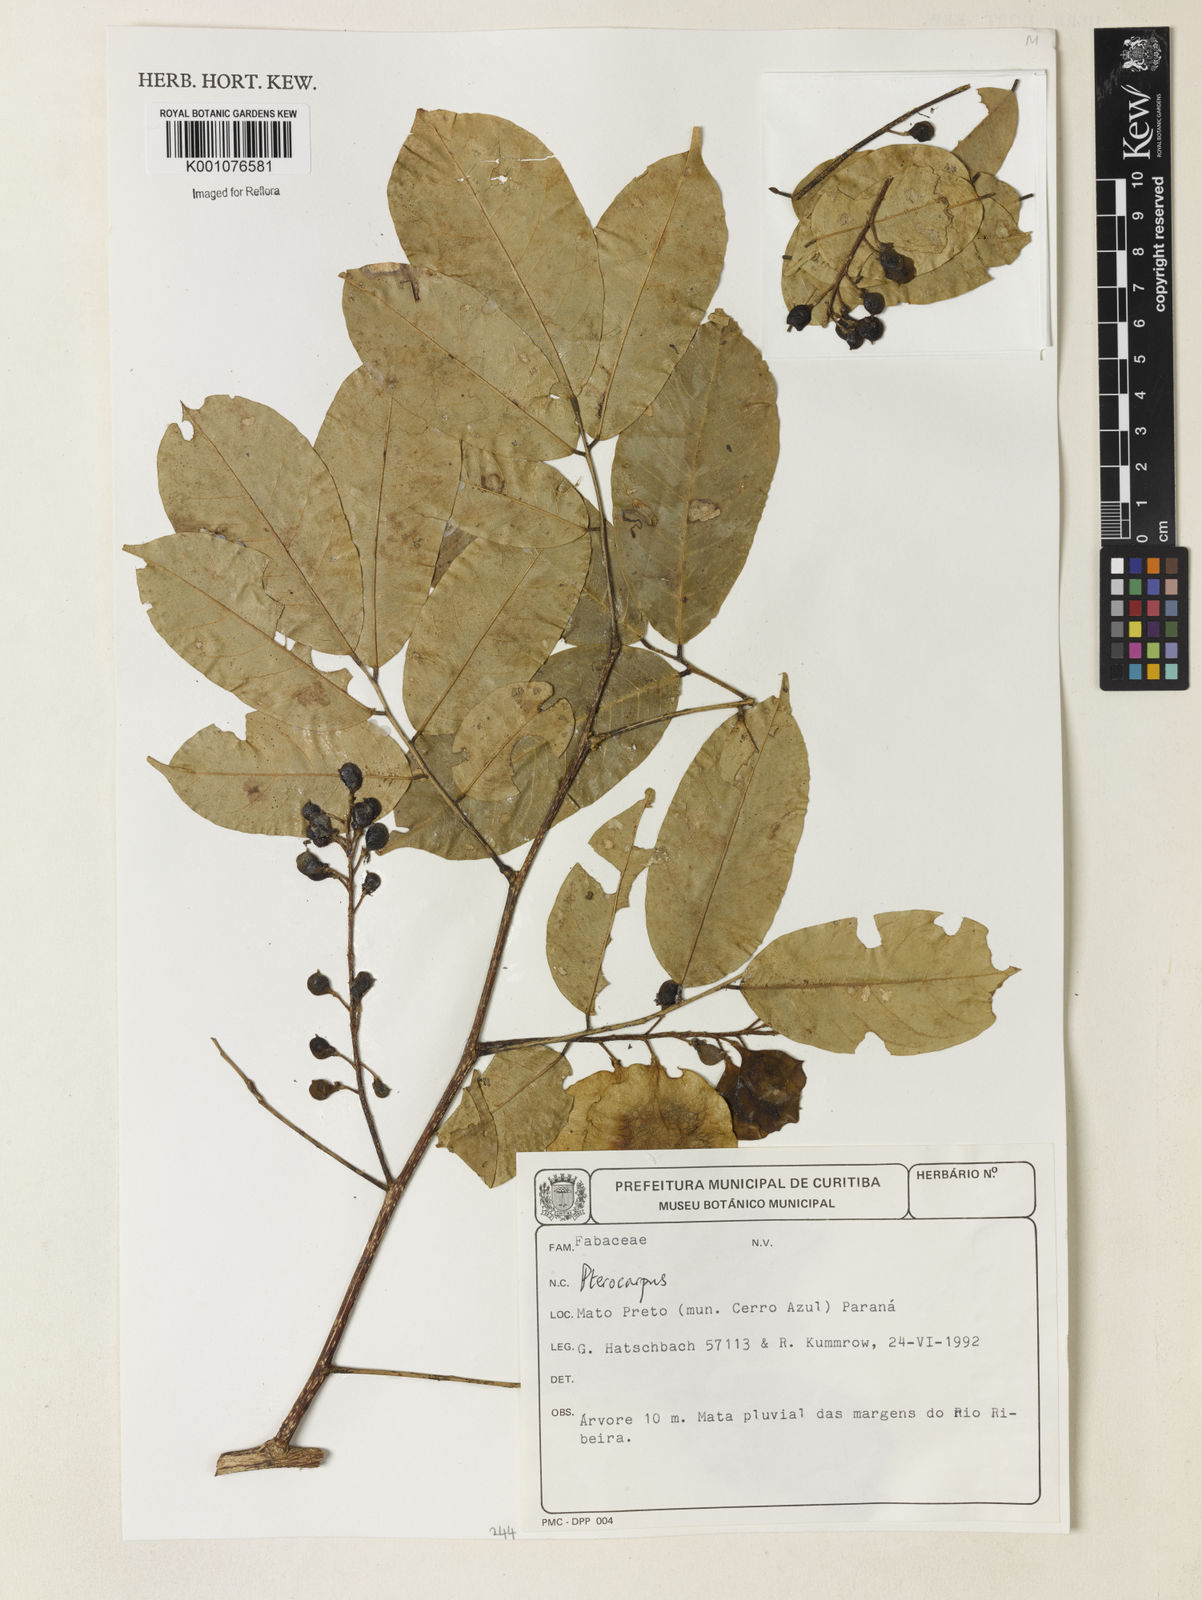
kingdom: Plantae
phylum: Tracheophyta
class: Magnoliopsida
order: Fabales
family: Fabaceae
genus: Pterocarpus
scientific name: Pterocarpus rohrii
